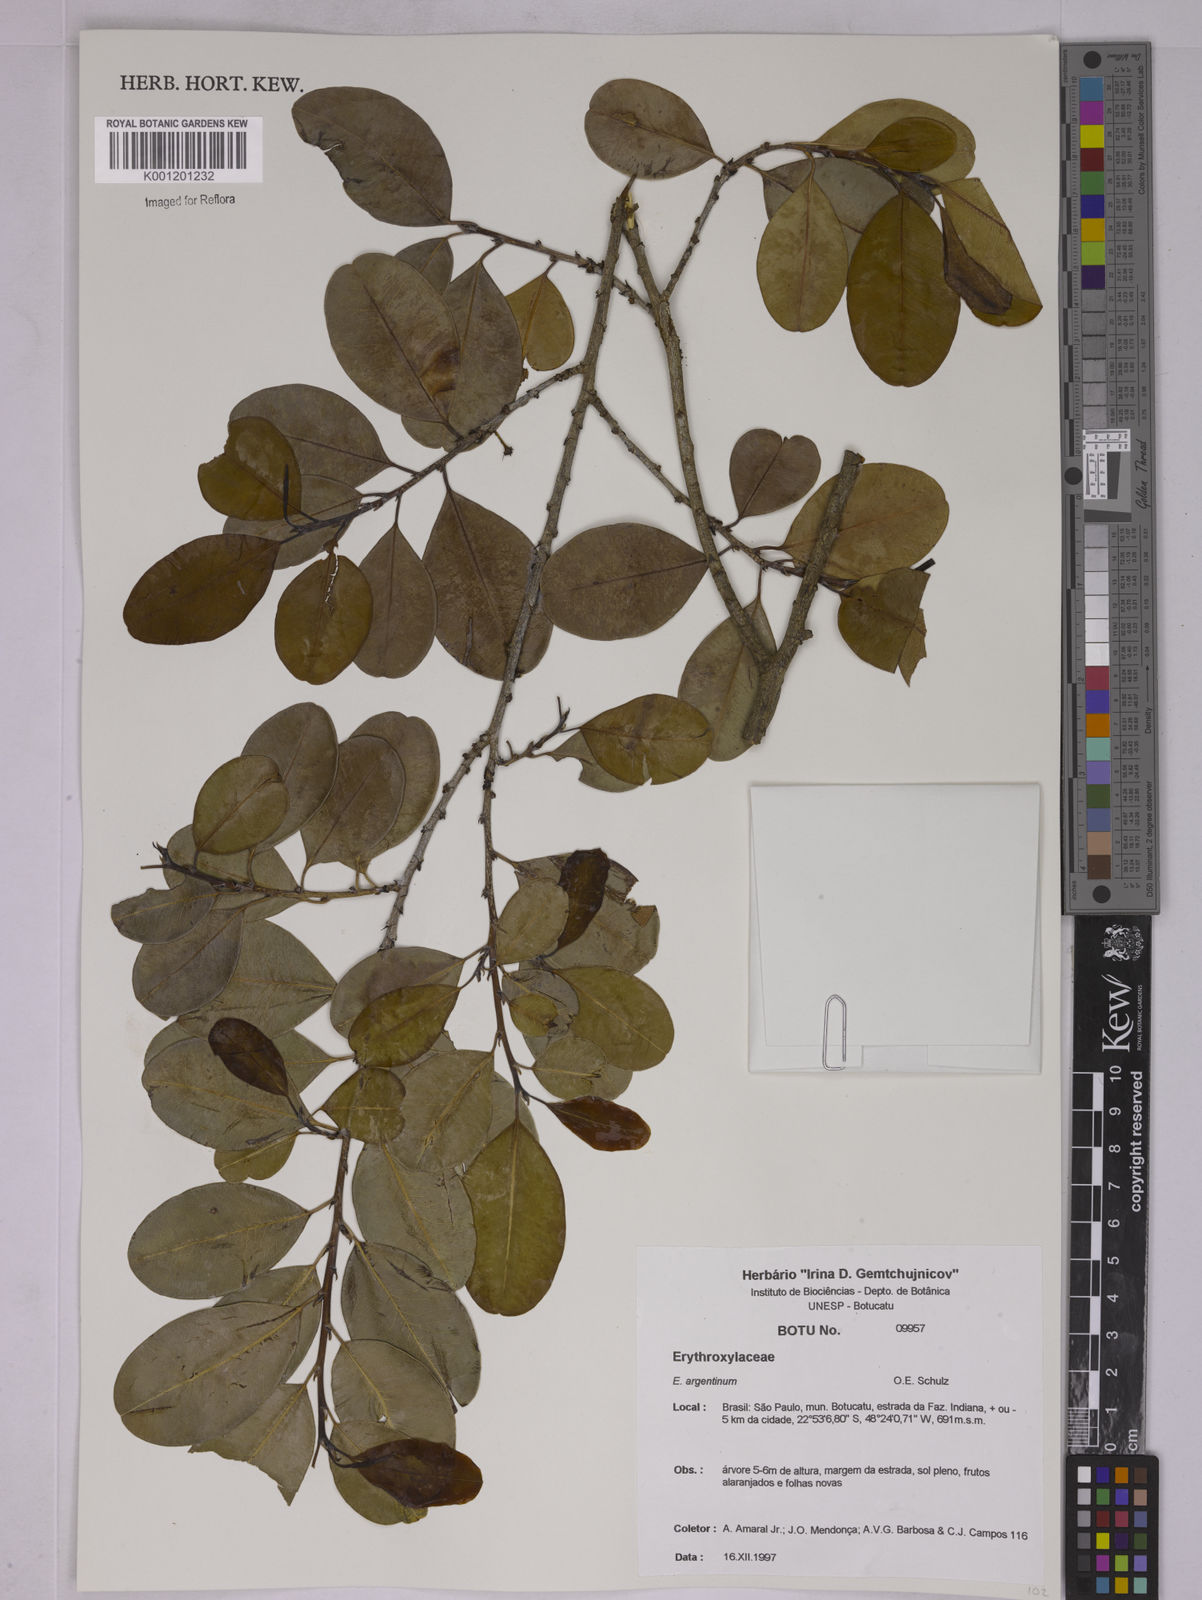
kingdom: Plantae
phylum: Tracheophyta
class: Magnoliopsida
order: Malpighiales
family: Erythroxylaceae
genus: Erythroxylum
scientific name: Erythroxylum argentinum
